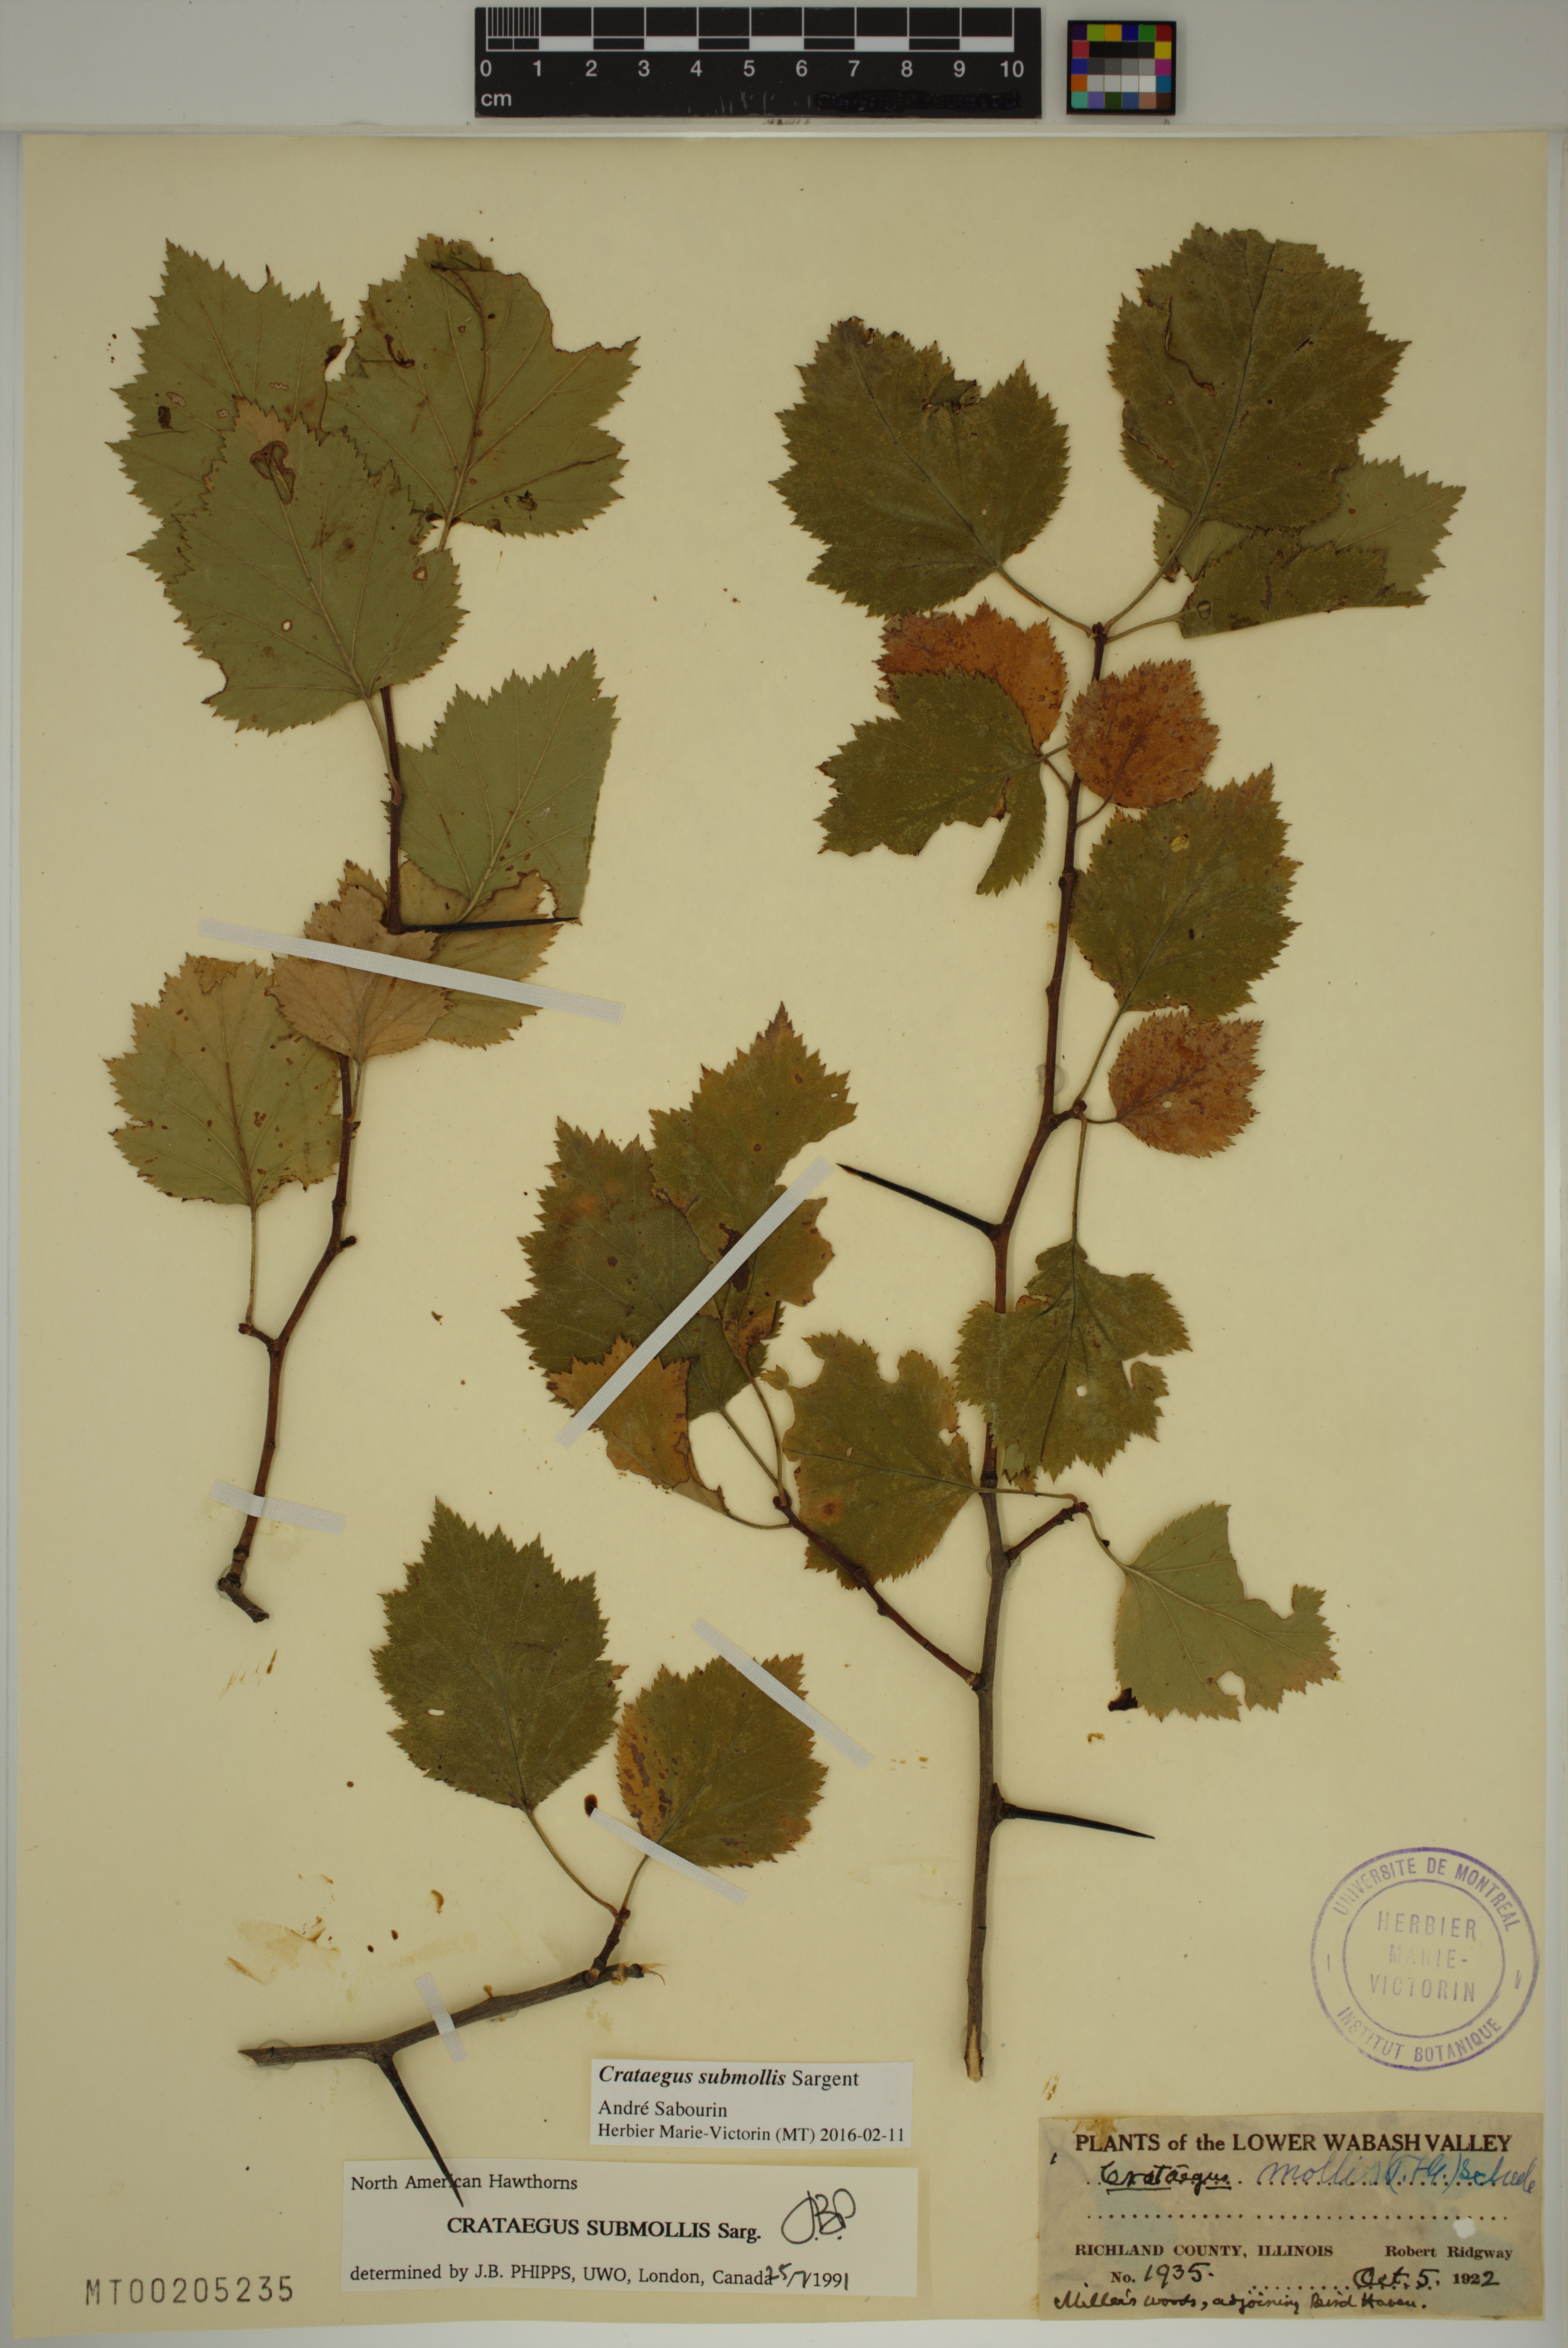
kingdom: Plantae
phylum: Tracheophyta
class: Magnoliopsida
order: Rosales
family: Rosaceae
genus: Crataegus
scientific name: Crataegus submollis
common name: Hairy cockspurthorn
